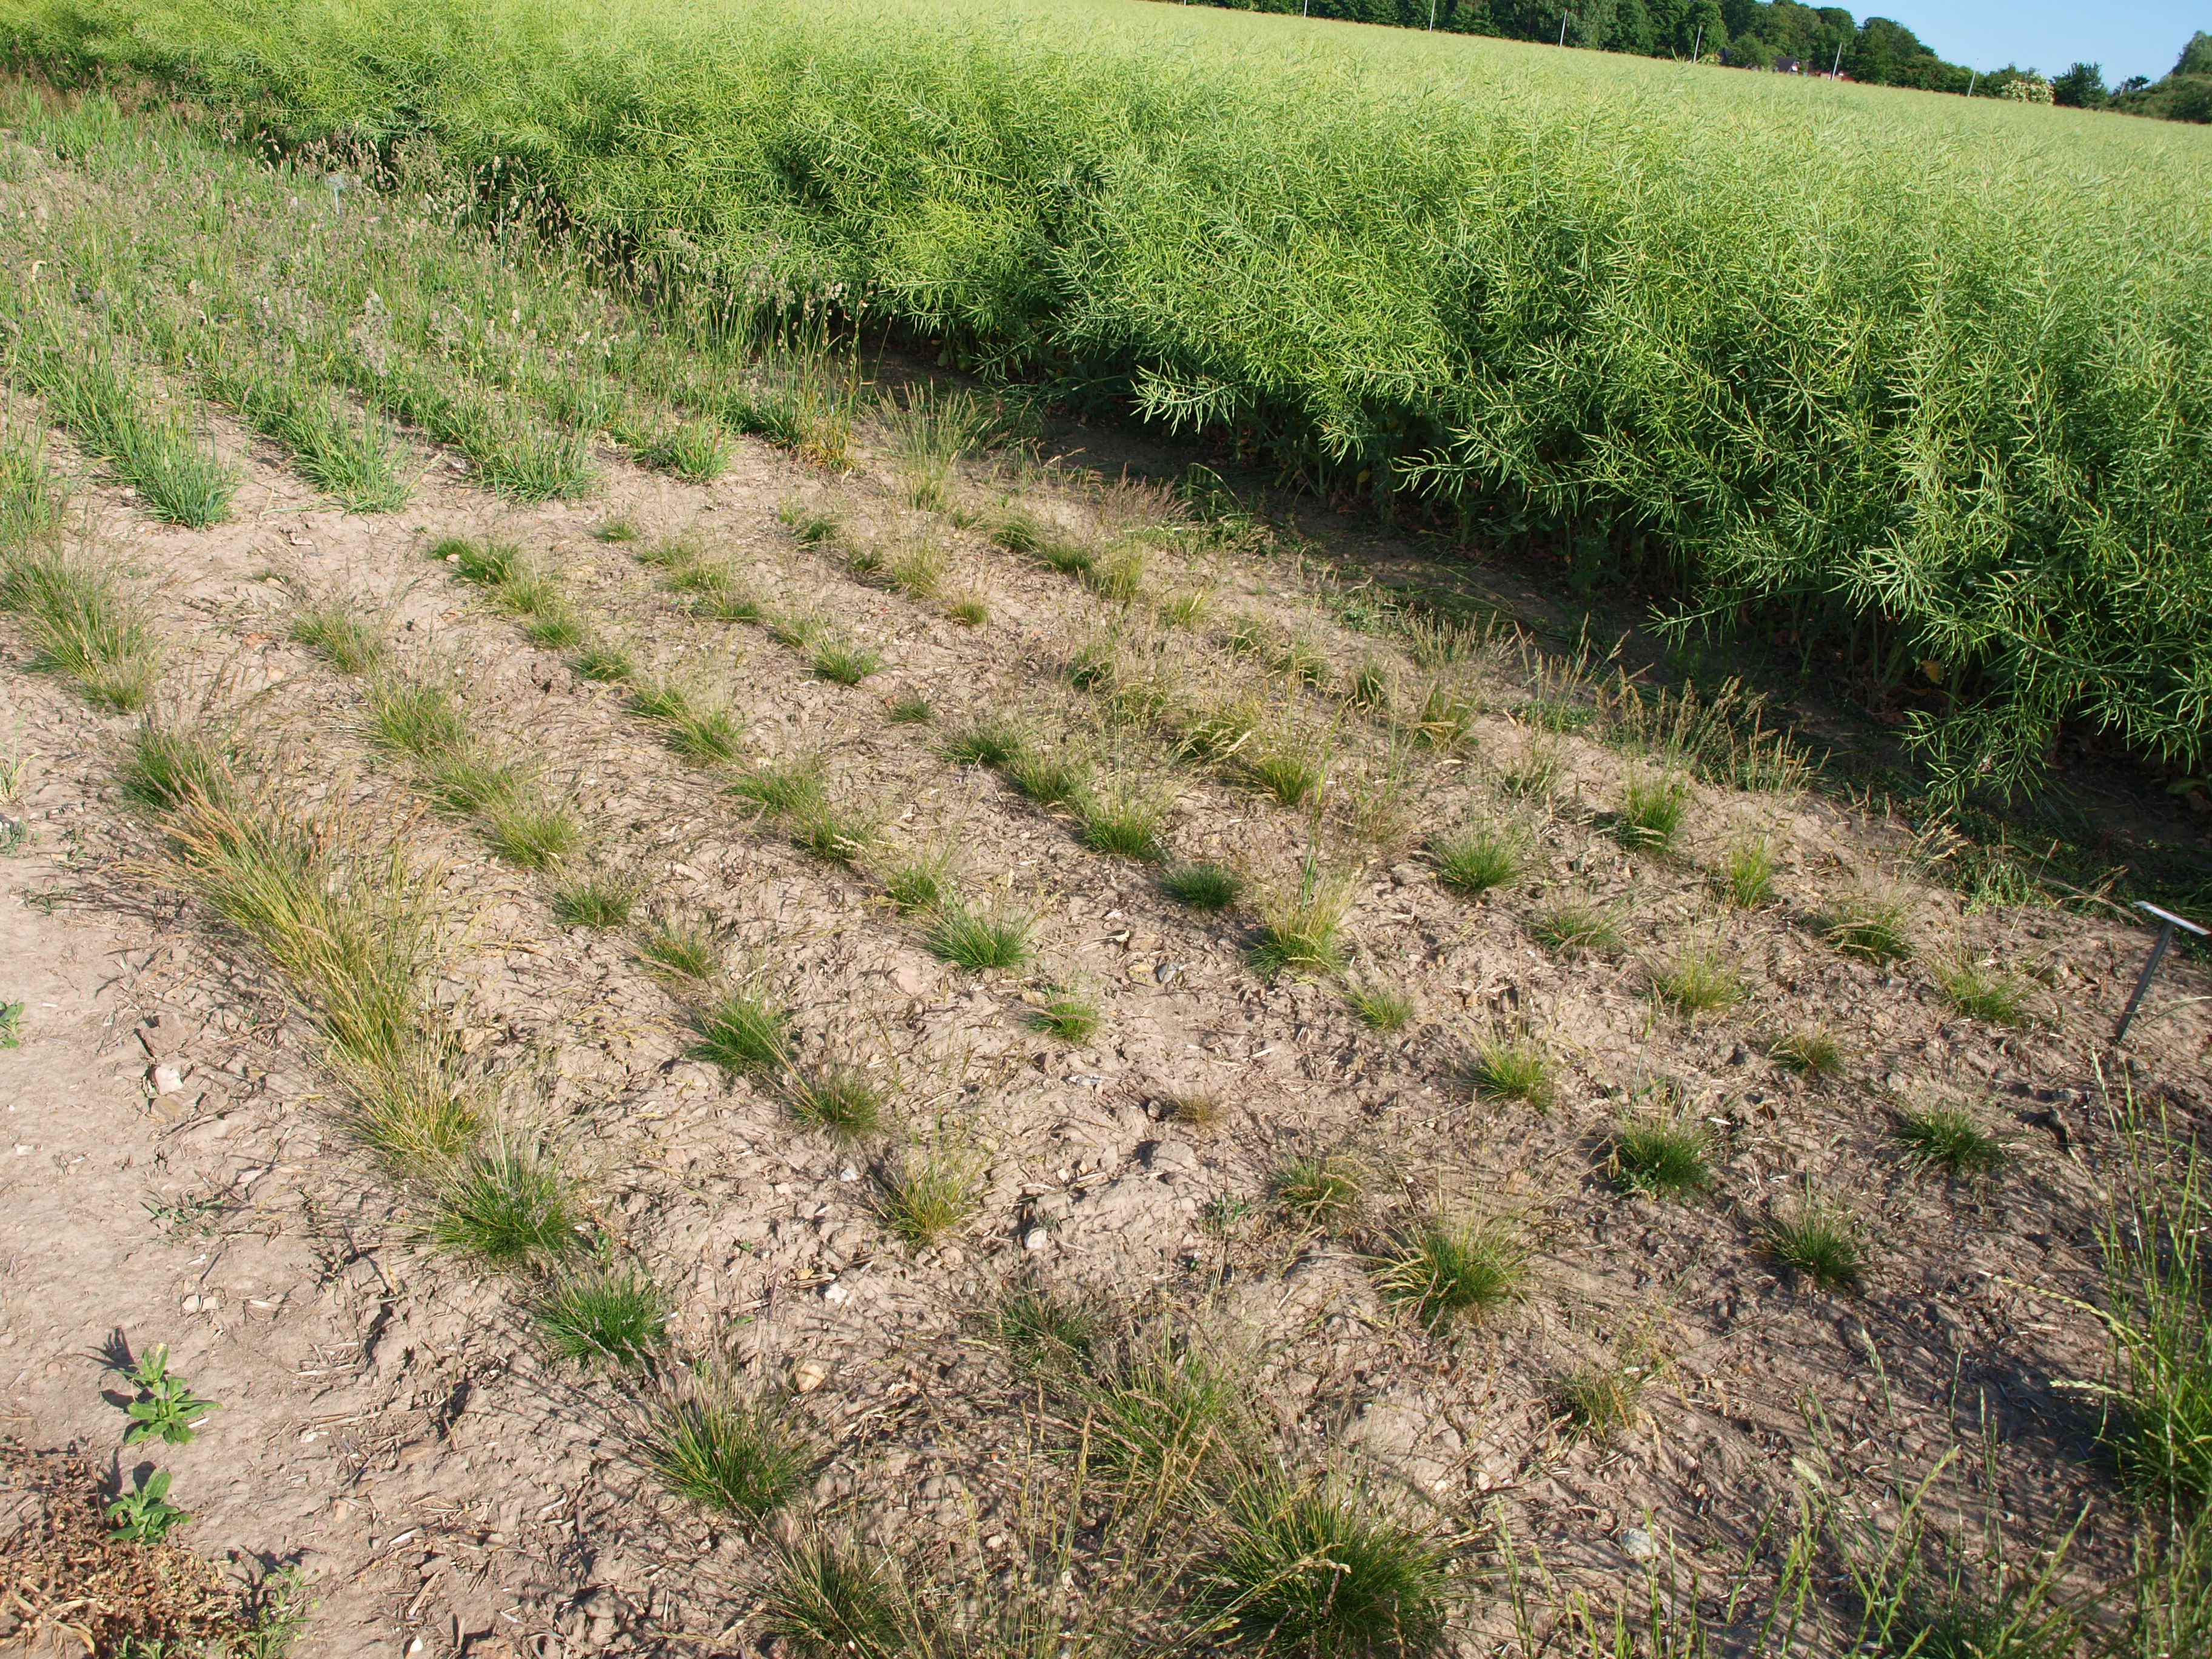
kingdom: Plantae
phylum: Tracheophyta
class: Liliopsida
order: Poales
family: Poaceae
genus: Festuca
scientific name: Festuca ovina
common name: Sheep fescue
